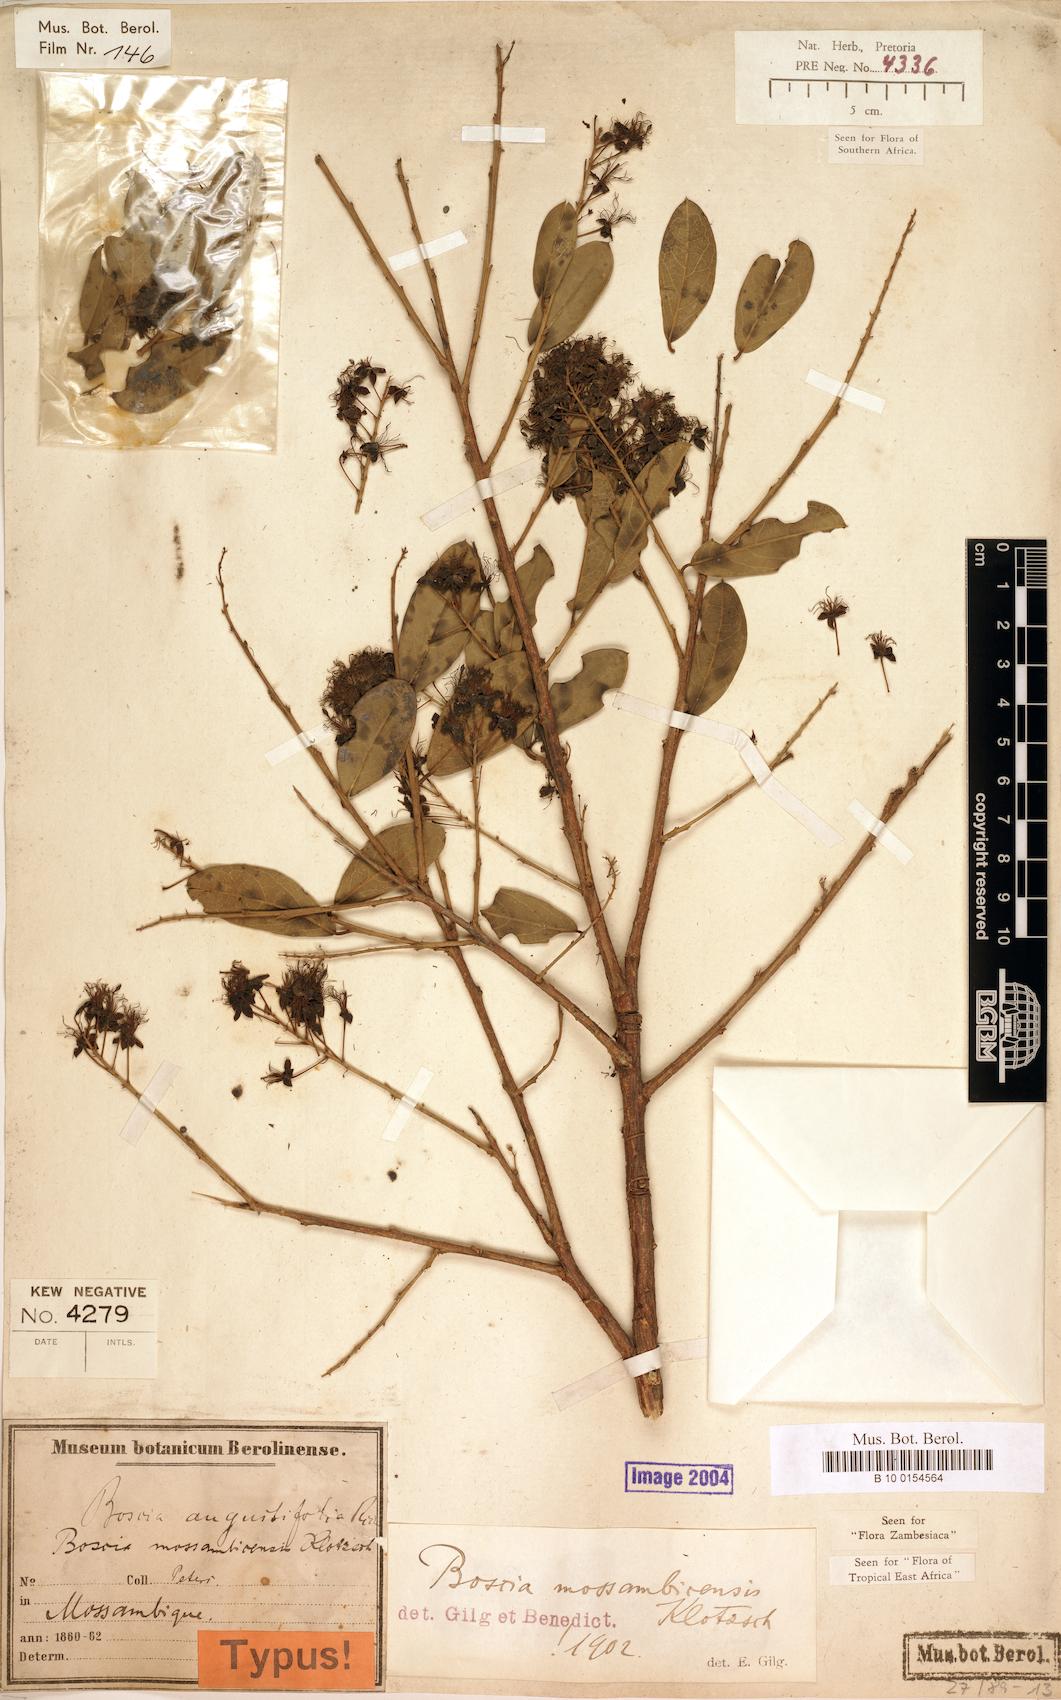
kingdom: Plantae
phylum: Tracheophyta
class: Magnoliopsida
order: Brassicales
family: Capparaceae
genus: Boscia
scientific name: Boscia mossambicensis
